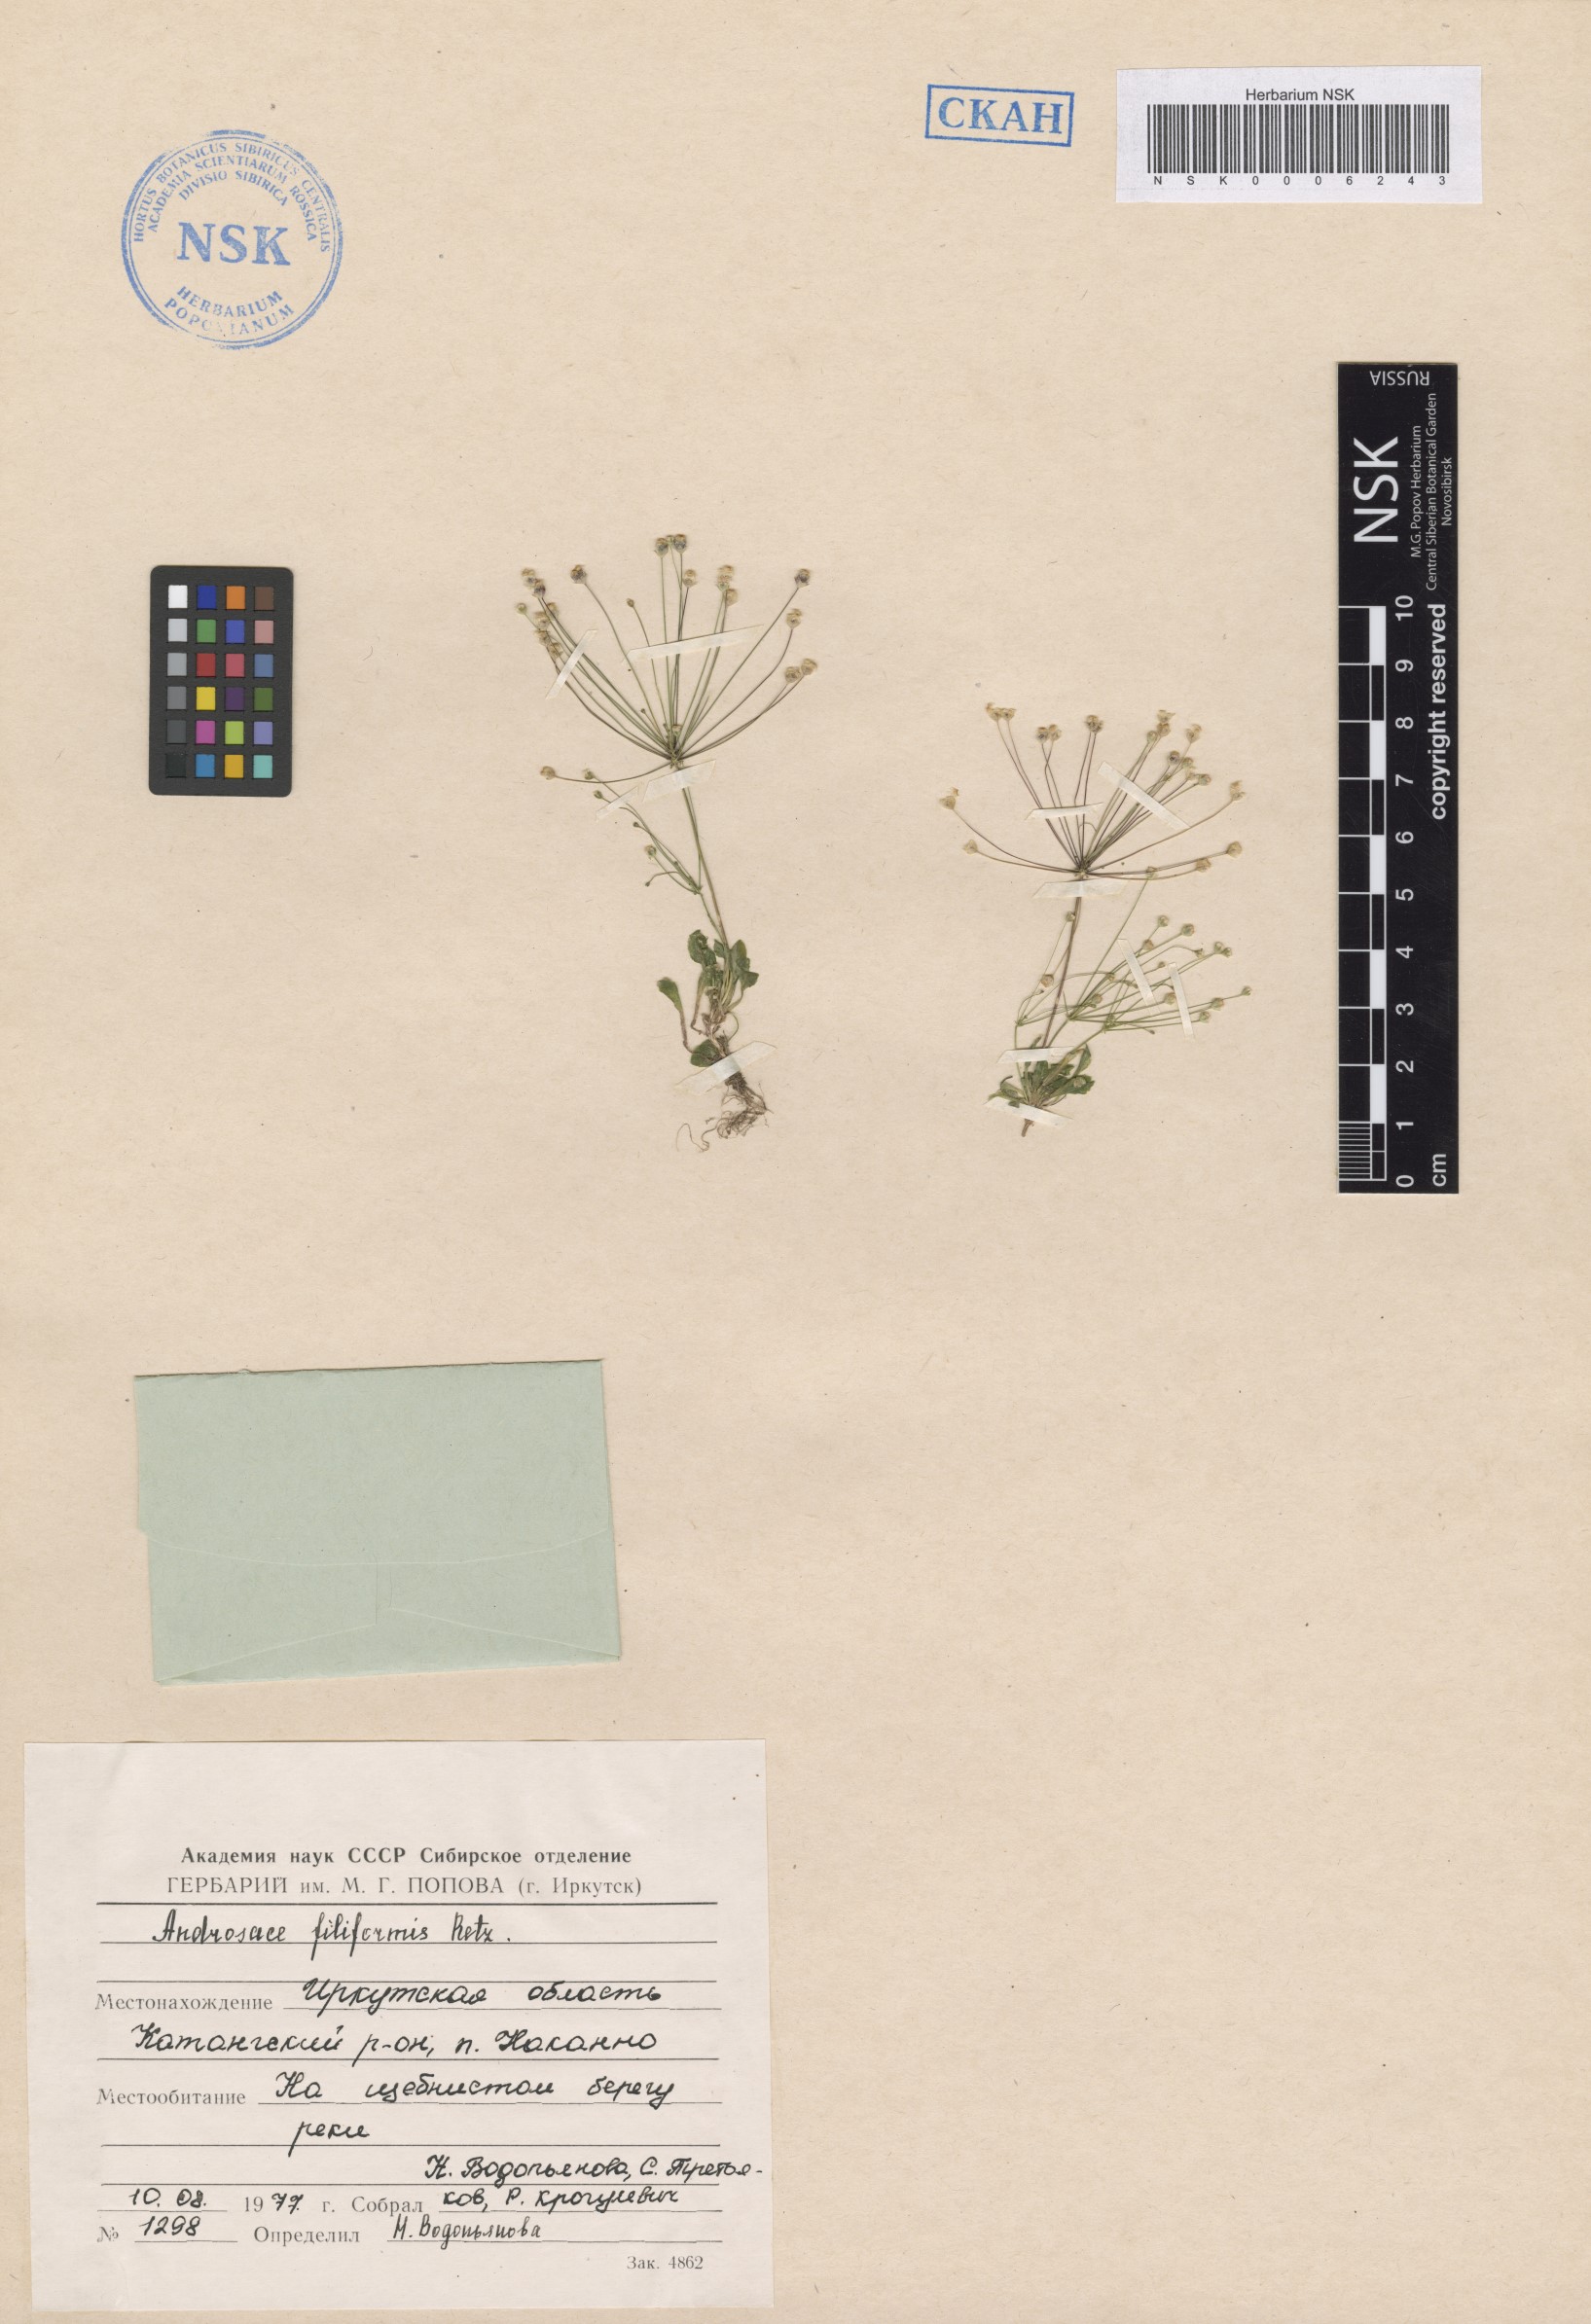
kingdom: Plantae
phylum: Tracheophyta
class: Magnoliopsida
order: Ericales
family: Primulaceae
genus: Androsace
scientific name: Androsace filiformis
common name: Filiform rock jasmine
